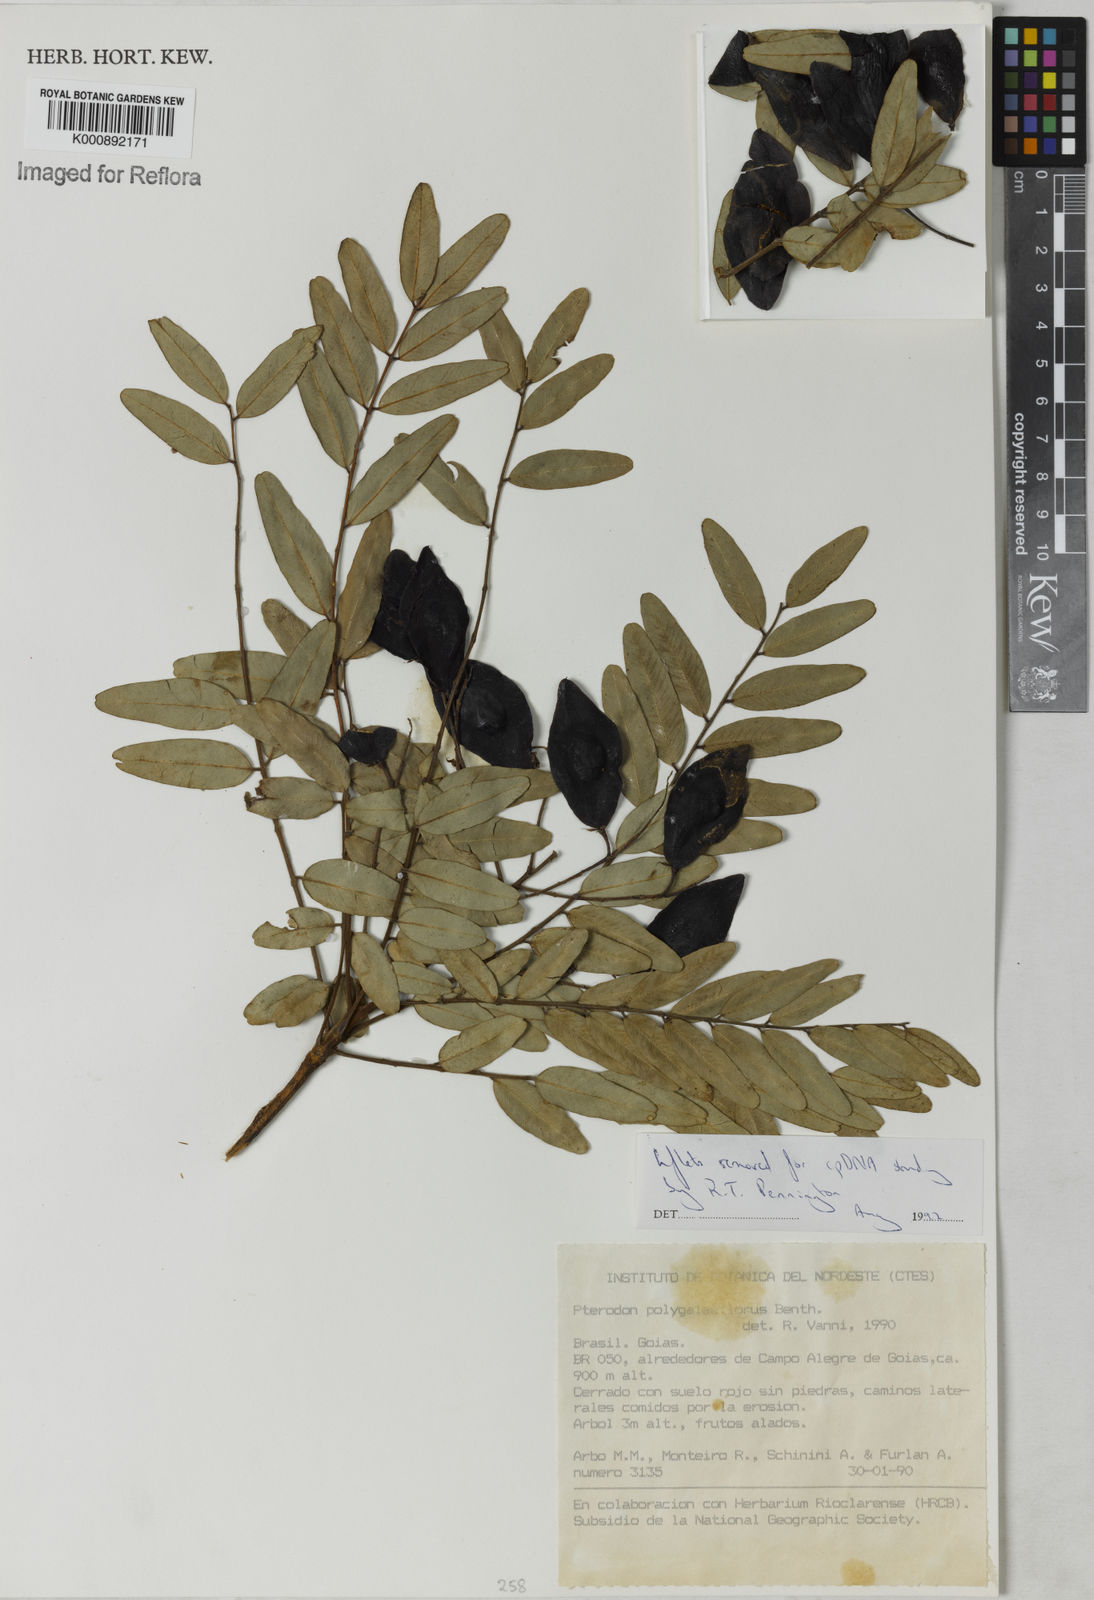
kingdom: Plantae
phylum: Tracheophyta
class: Magnoliopsida
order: Fabales
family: Fabaceae
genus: Pterodon
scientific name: Pterodon emarginatus
